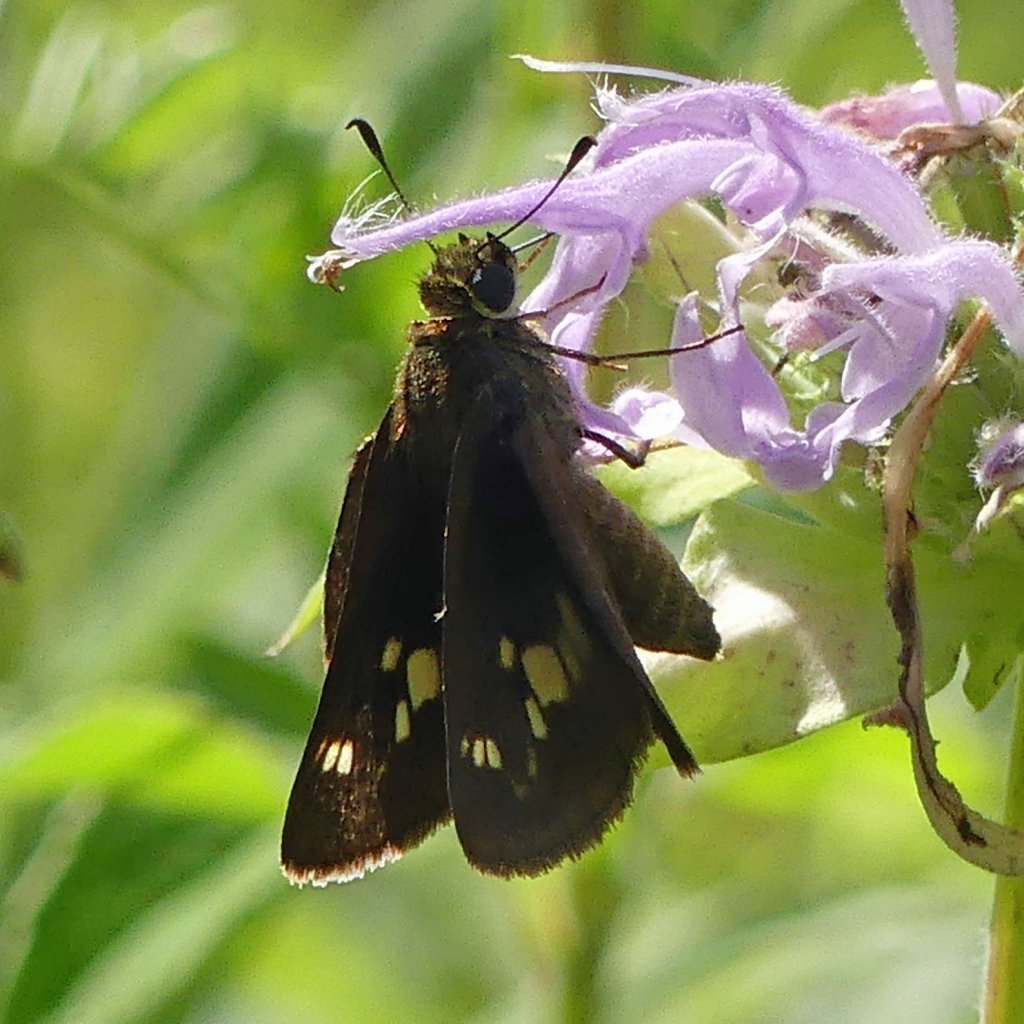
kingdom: Animalia
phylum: Arthropoda
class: Insecta
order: Lepidoptera
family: Hesperiidae
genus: Vernia
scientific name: Vernia verna
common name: Little Glassywing
